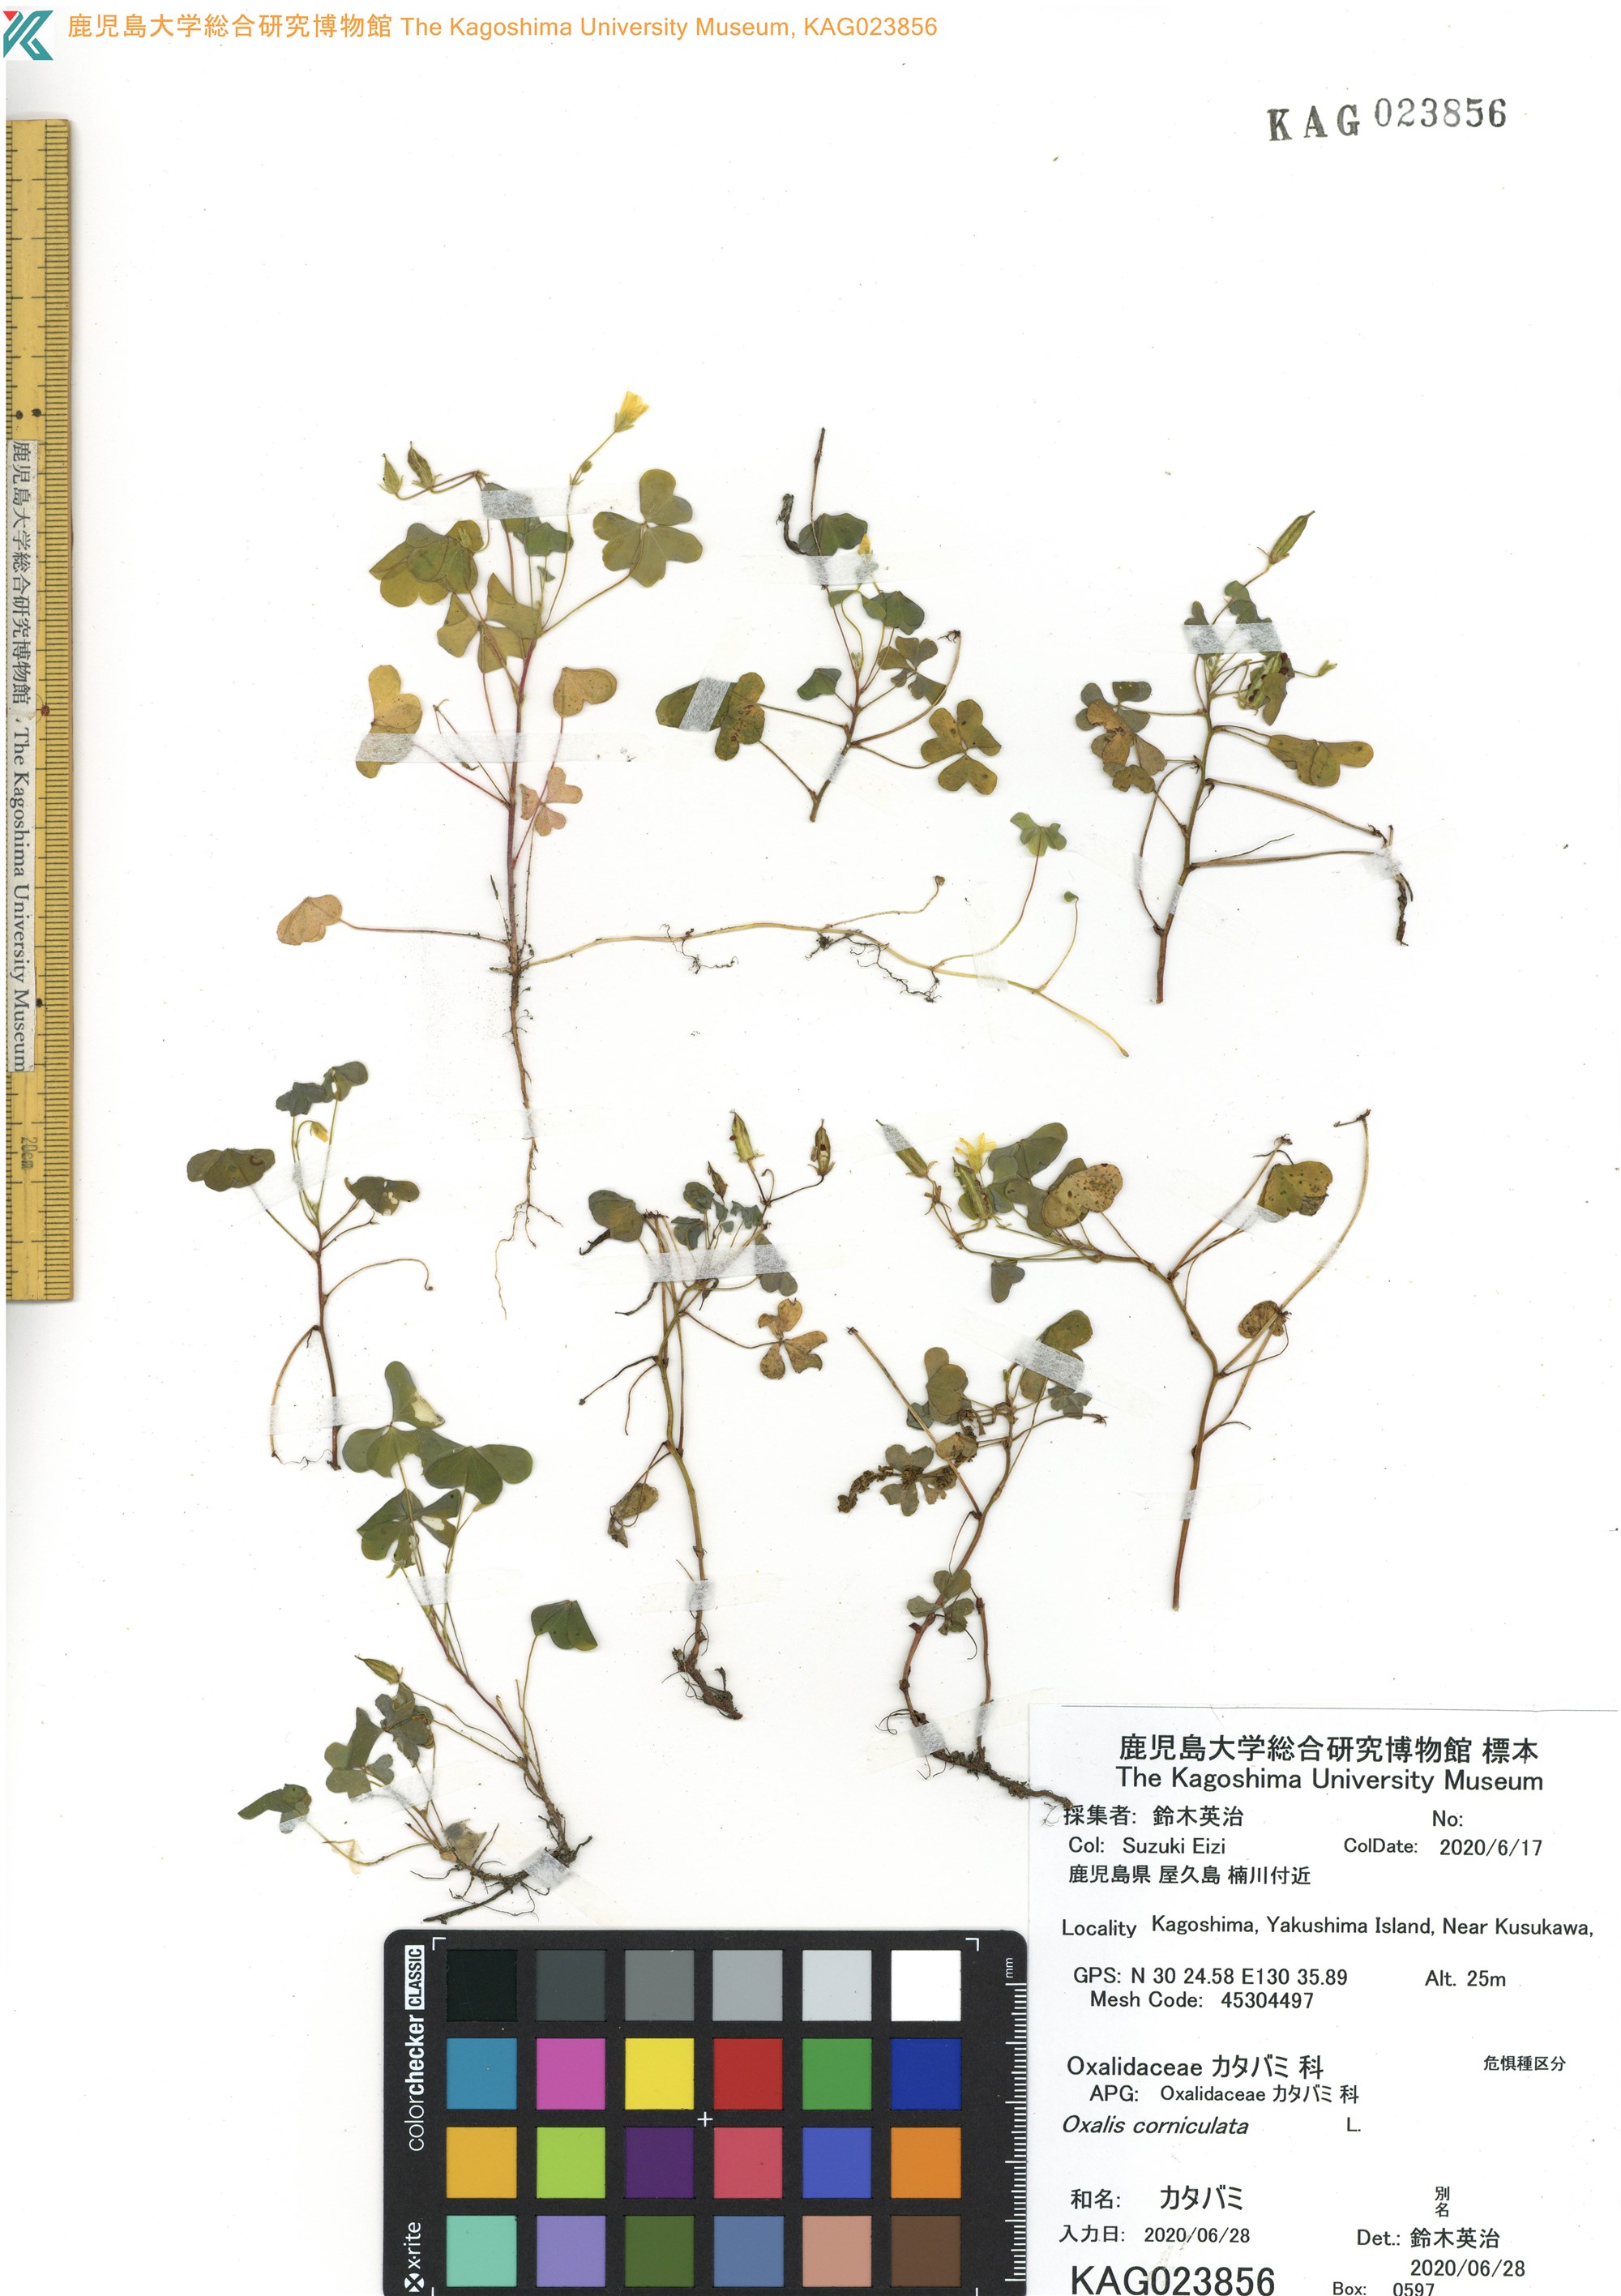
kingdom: Plantae
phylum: Tracheophyta
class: Magnoliopsida
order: Oxalidales
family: Oxalidaceae
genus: Oxalis
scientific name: Oxalis corniculata
